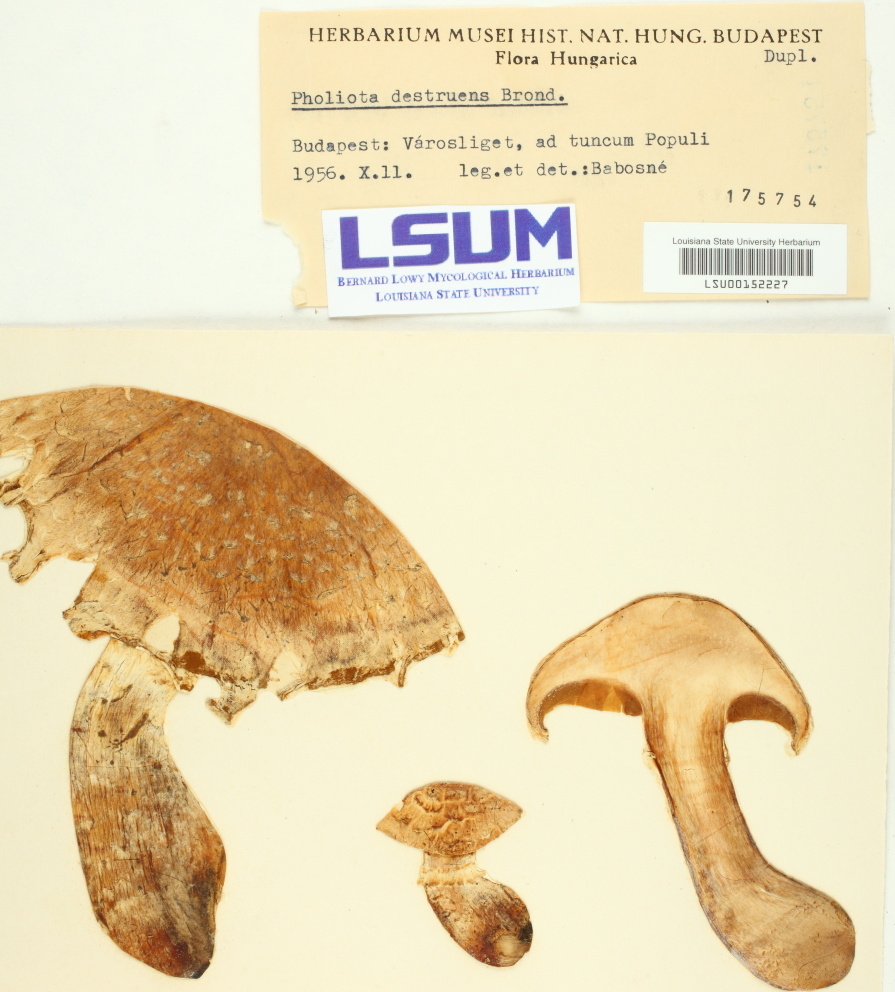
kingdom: Fungi
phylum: Basidiomycota
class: Agaricomycetes
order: Agaricales
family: Strophariaceae
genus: Pholiota
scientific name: Pholiota populnea
